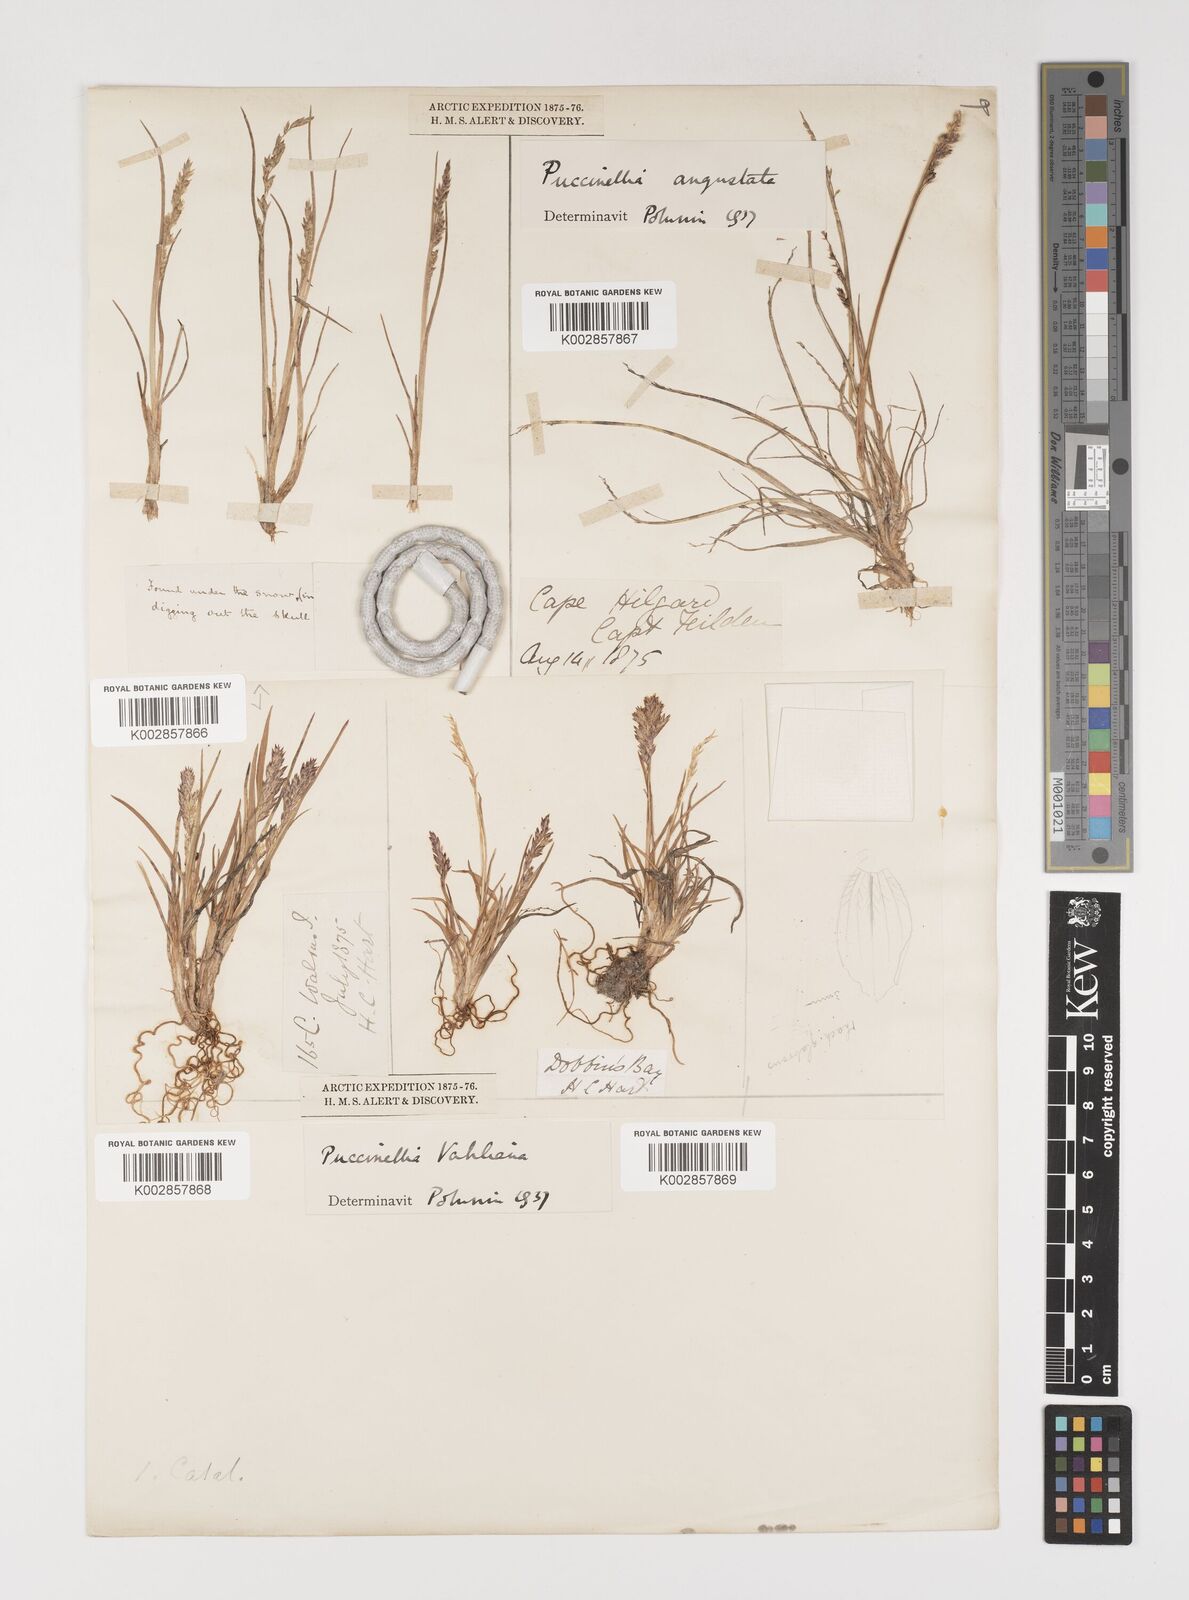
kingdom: Plantae
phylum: Tracheophyta
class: Liliopsida
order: Poales
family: Poaceae
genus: Puccinellia
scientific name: Puccinellia vahliana
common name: Vahl's alkaligrass
